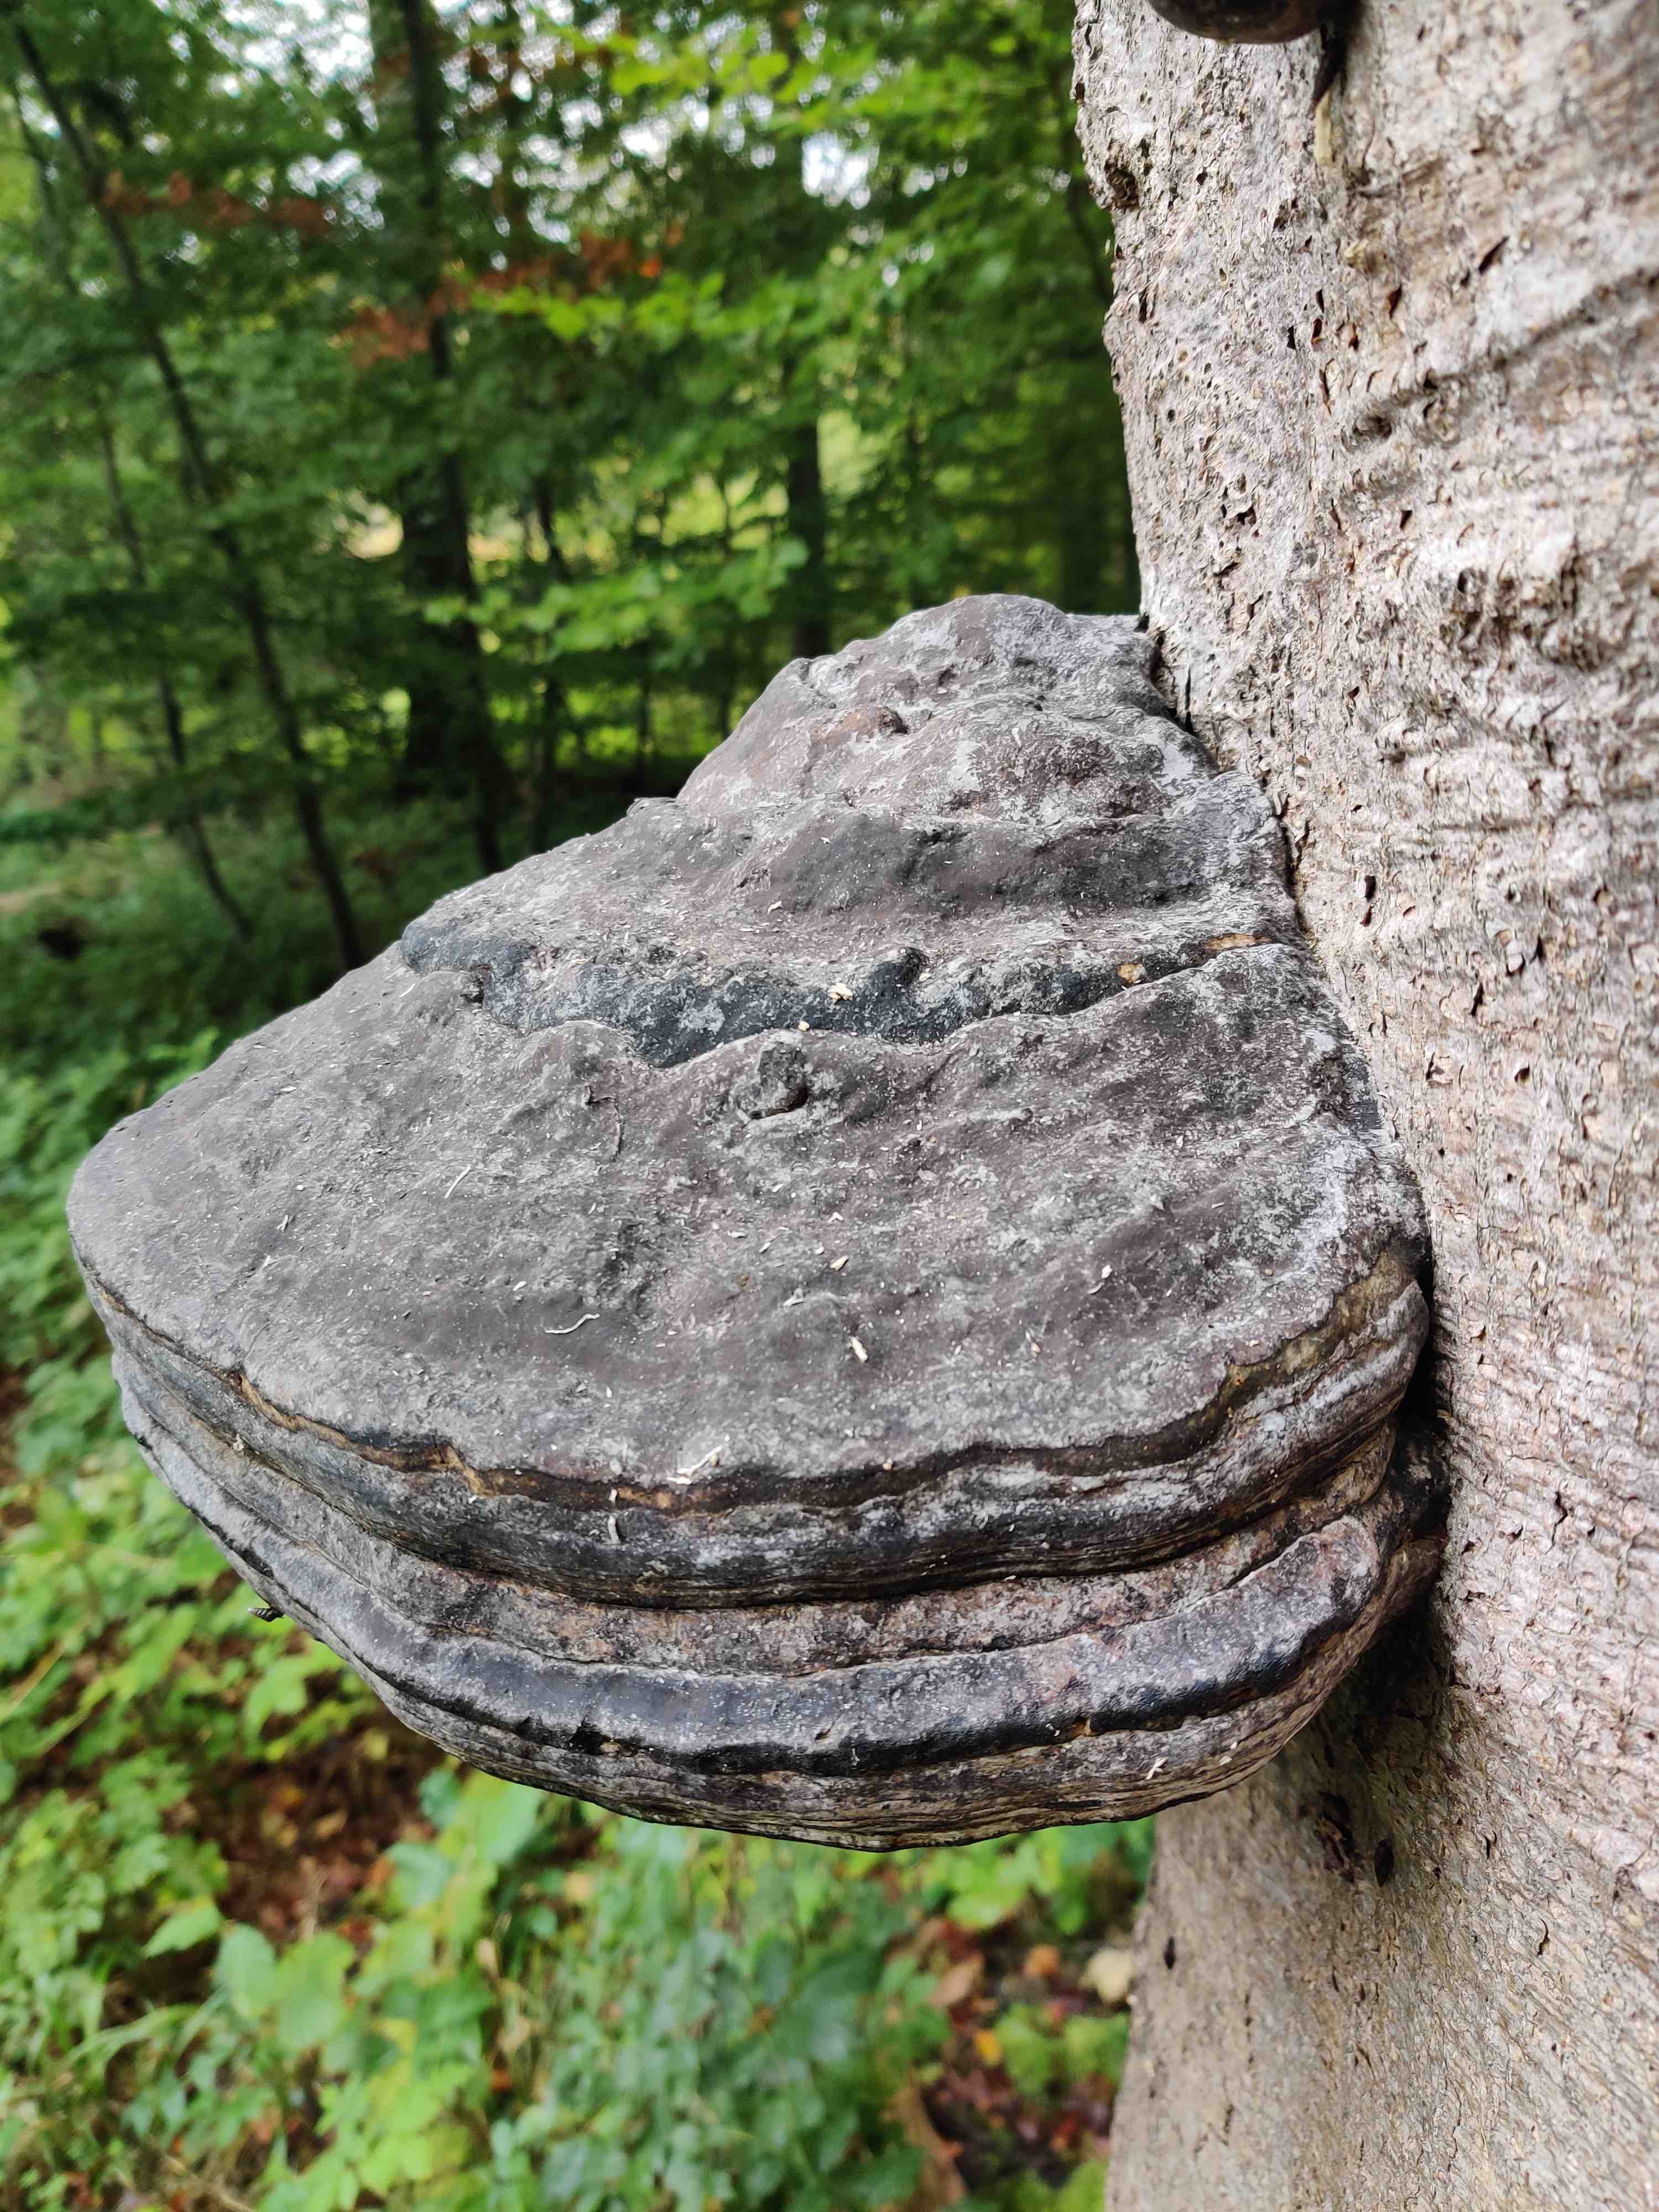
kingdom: Fungi
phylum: Basidiomycota
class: Agaricomycetes
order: Polyporales
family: Polyporaceae
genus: Fomes
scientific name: Fomes fomentarius
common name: tøndersvamp
